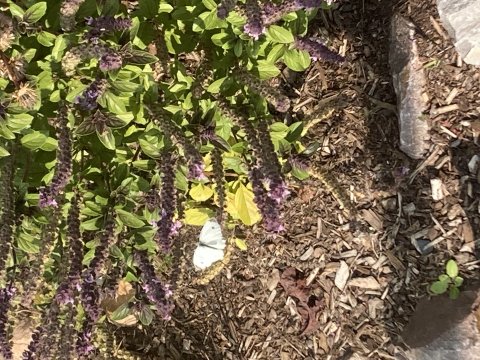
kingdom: Animalia
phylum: Arthropoda
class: Insecta
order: Lepidoptera
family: Pieridae
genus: Pieris
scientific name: Pieris rapae
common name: Cabbage White
